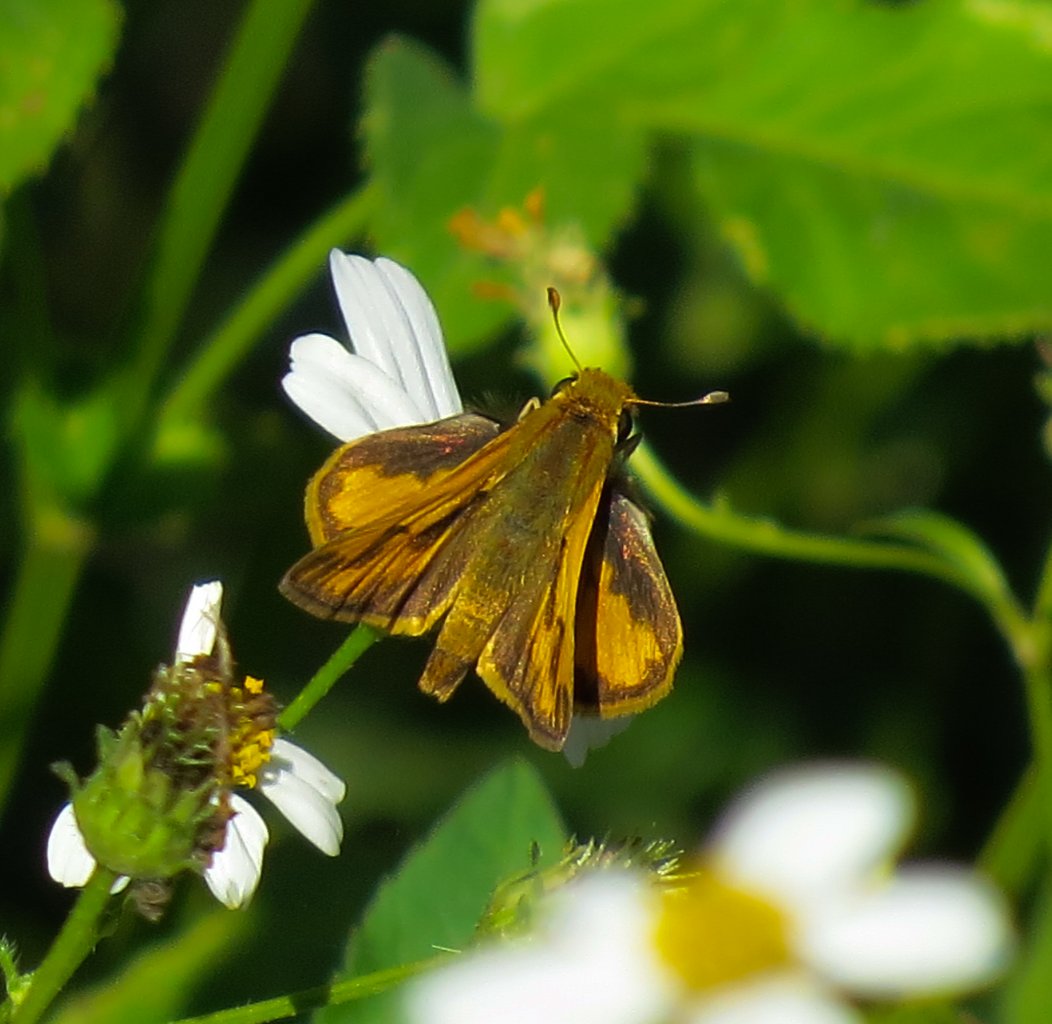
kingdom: Animalia
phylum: Arthropoda
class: Insecta
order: Lepidoptera
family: Hesperiidae
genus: Polites
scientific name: Polites vibex
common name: Whirlabout
